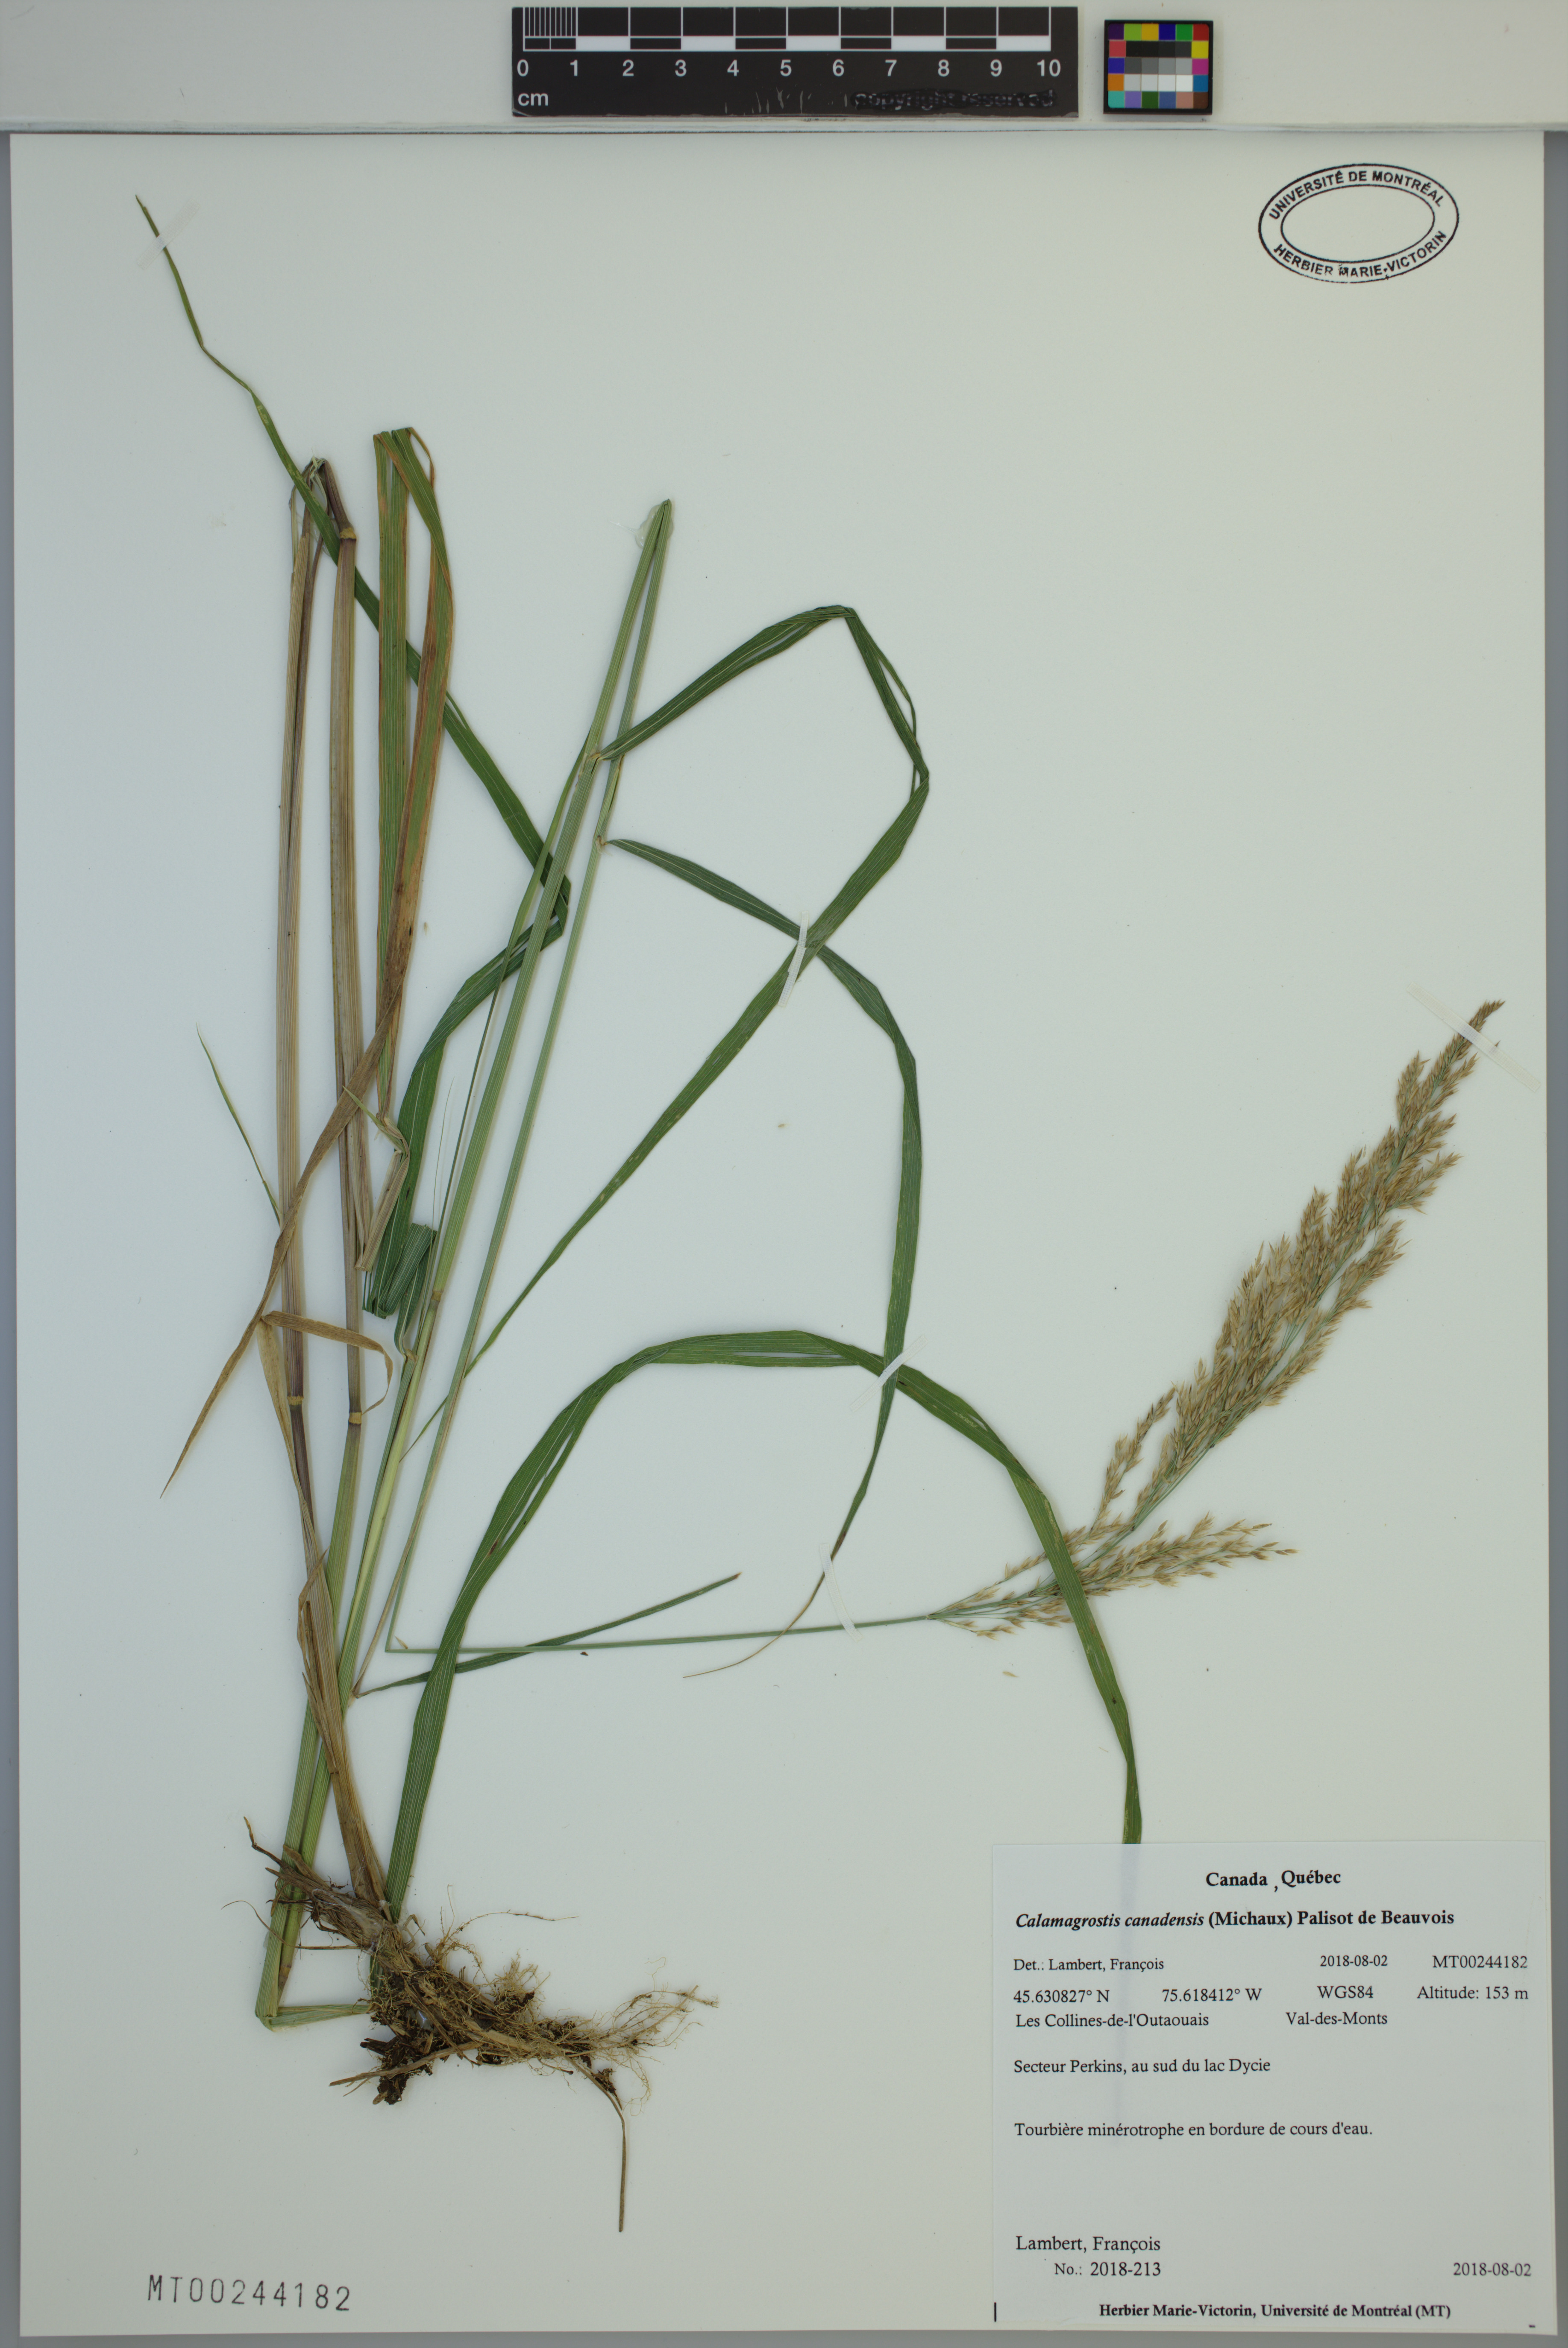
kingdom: Plantae
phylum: Tracheophyta
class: Liliopsida
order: Poales
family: Poaceae
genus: Calamagrostis
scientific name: Calamagrostis canadensis
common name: Canada bluejoint
